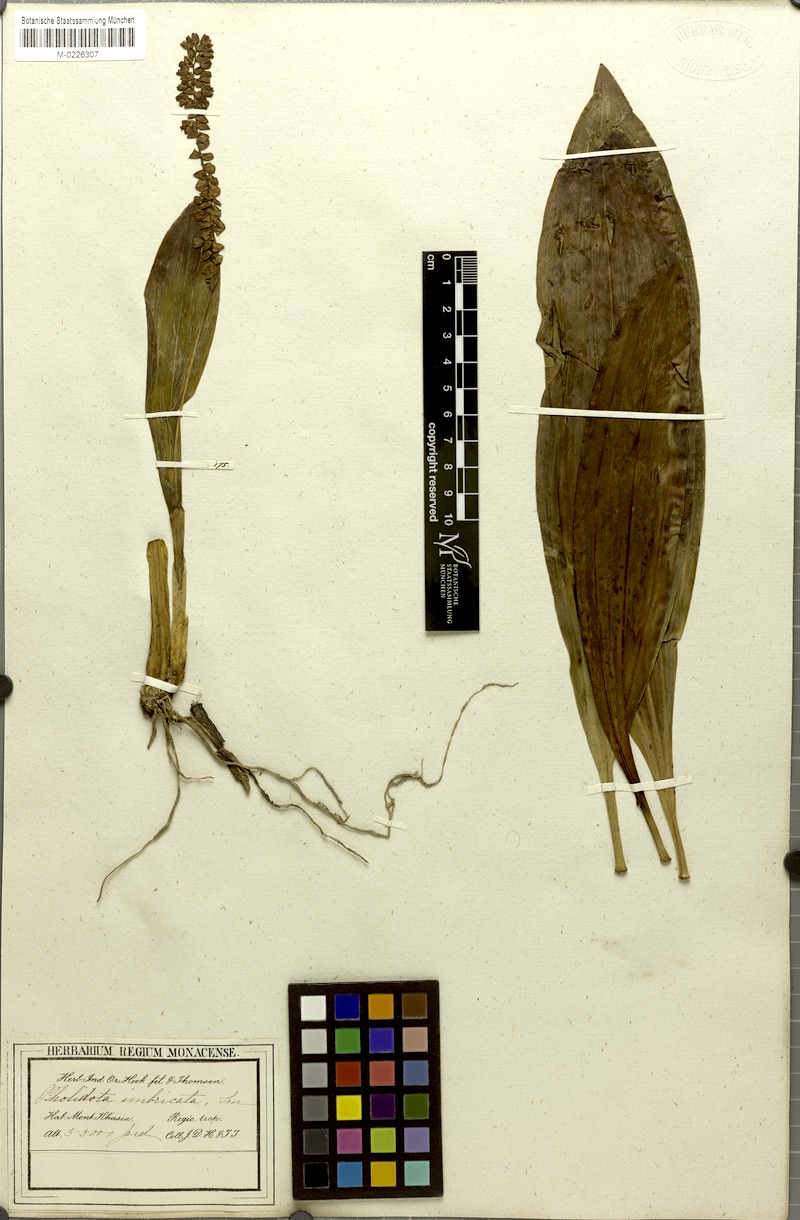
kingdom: Plantae
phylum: Tracheophyta
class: Liliopsida
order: Asparagales
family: Orchidaceae
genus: Pholidota
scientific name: Pholidota imbricata
